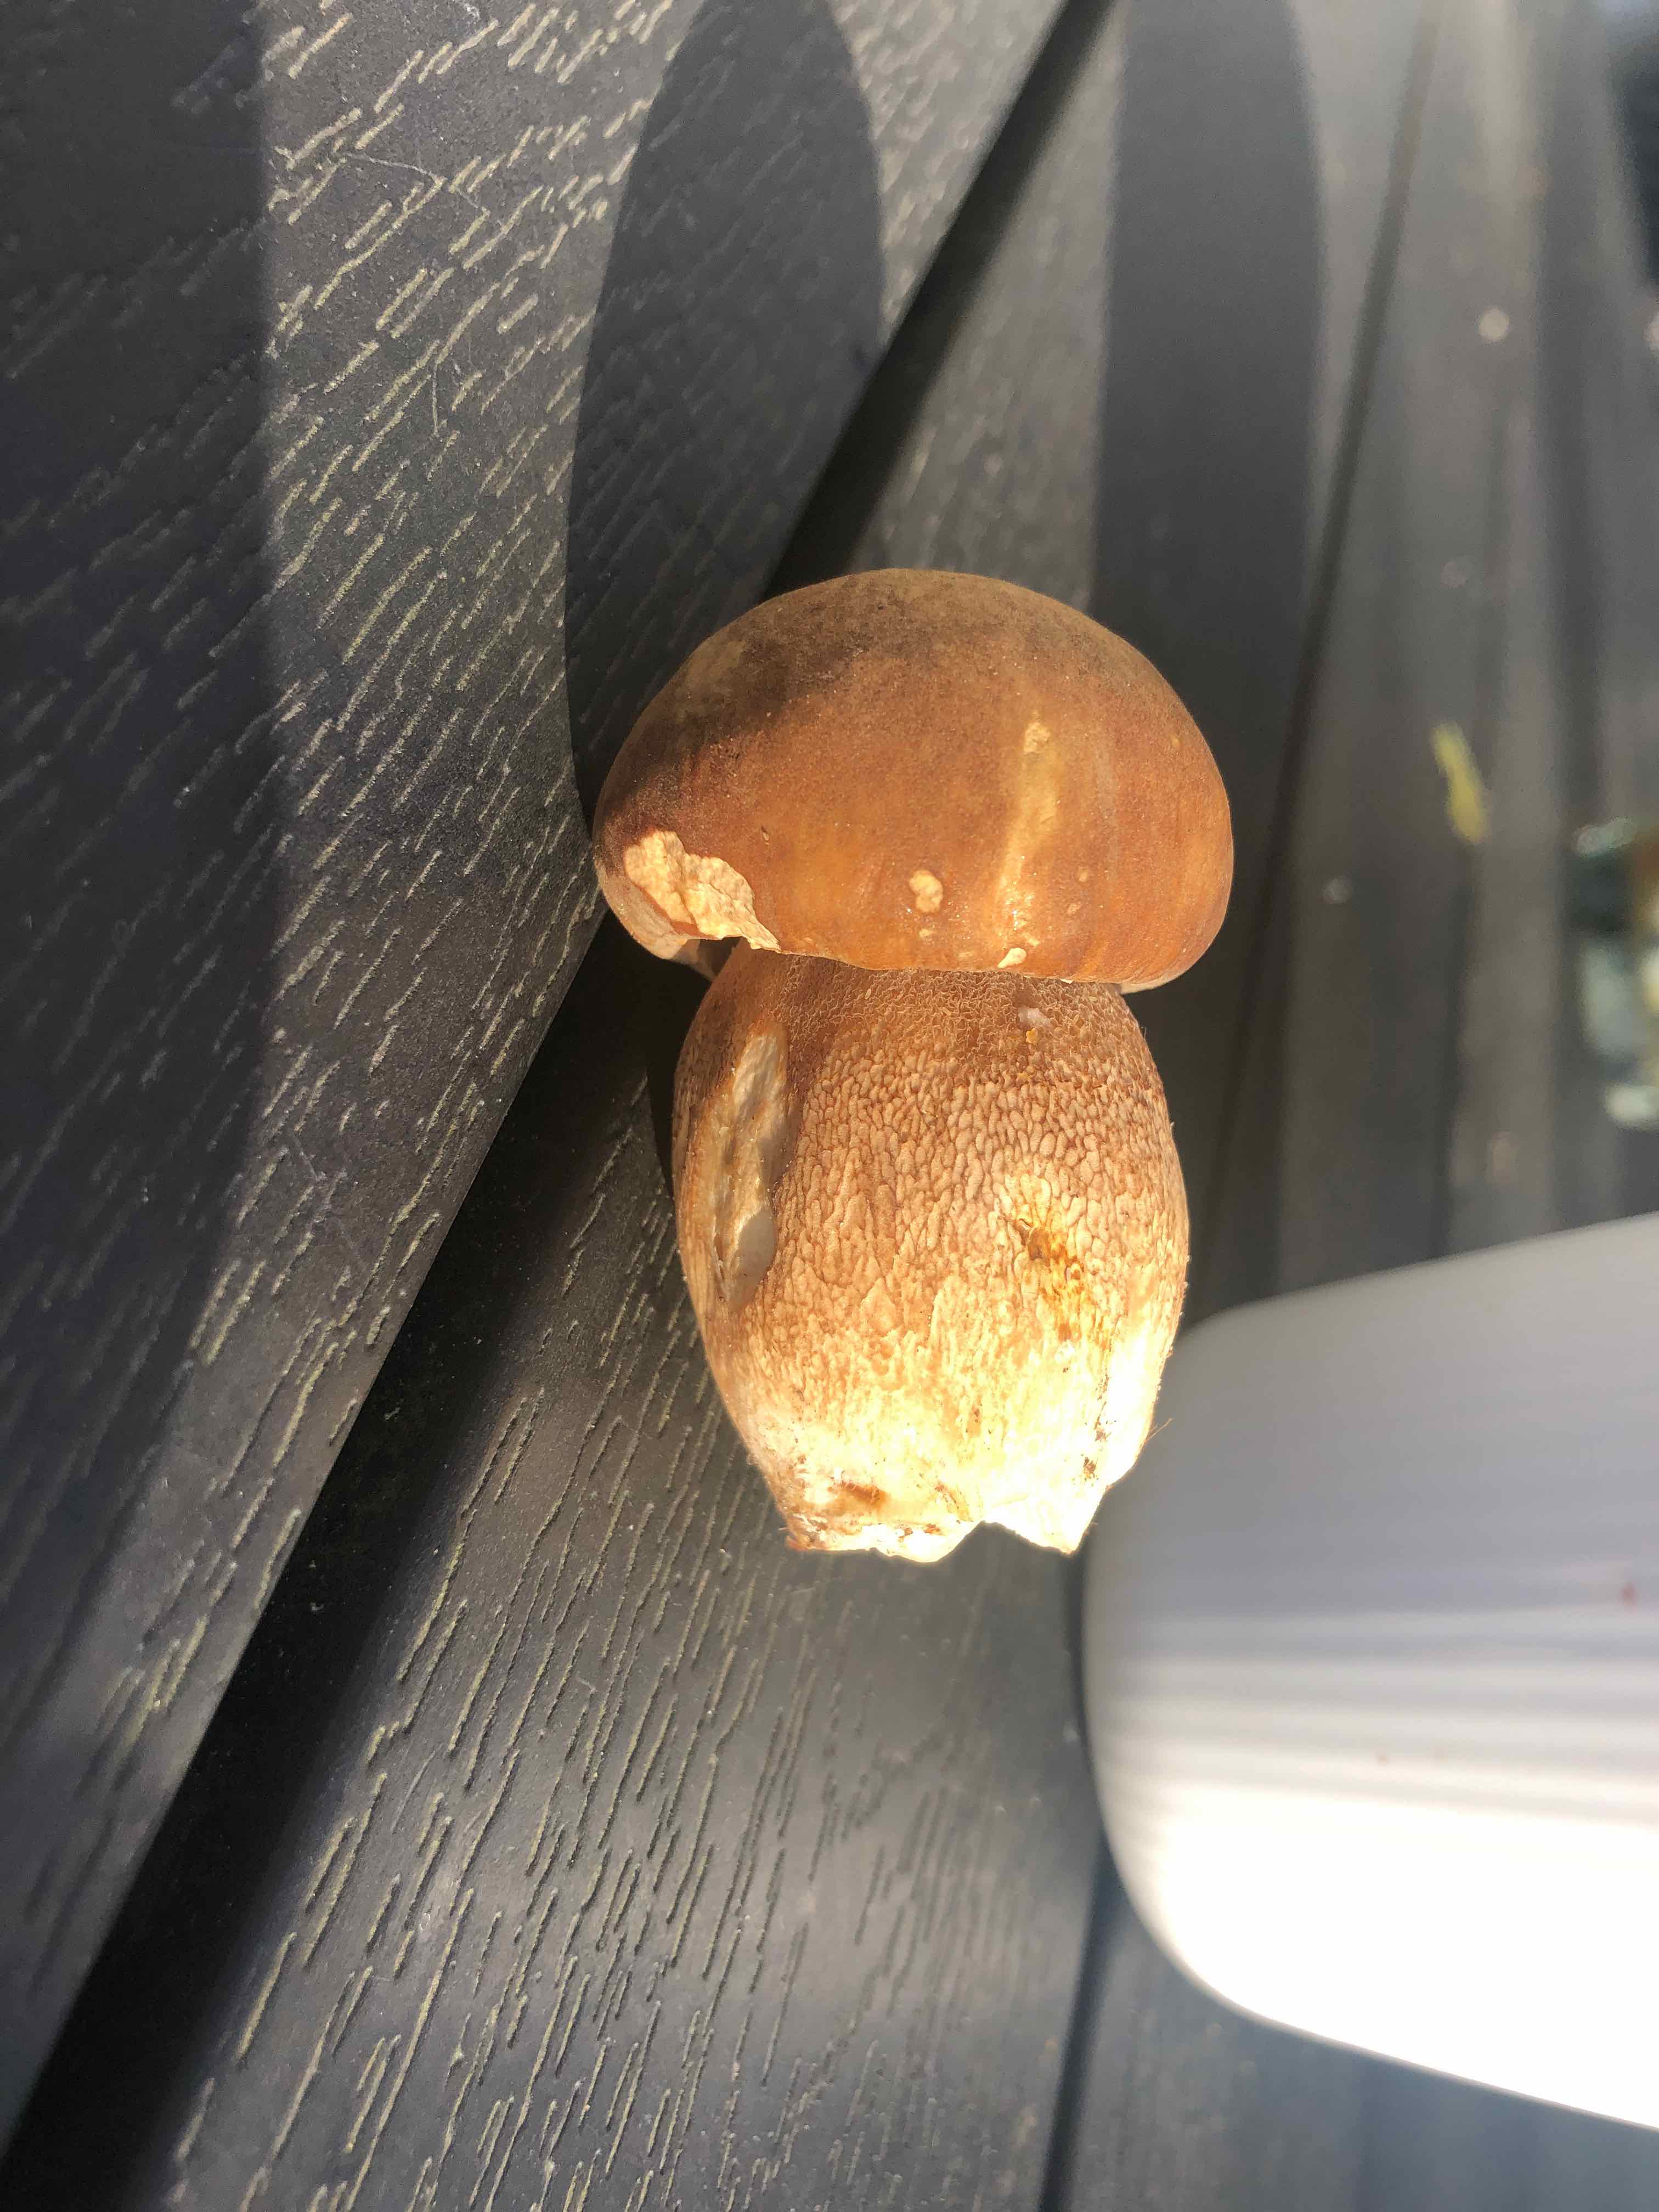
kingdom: Fungi
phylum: Basidiomycota
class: Agaricomycetes
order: Boletales
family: Boletaceae
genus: Boletus
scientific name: Boletus reticulatus
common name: sommer-rørhat
